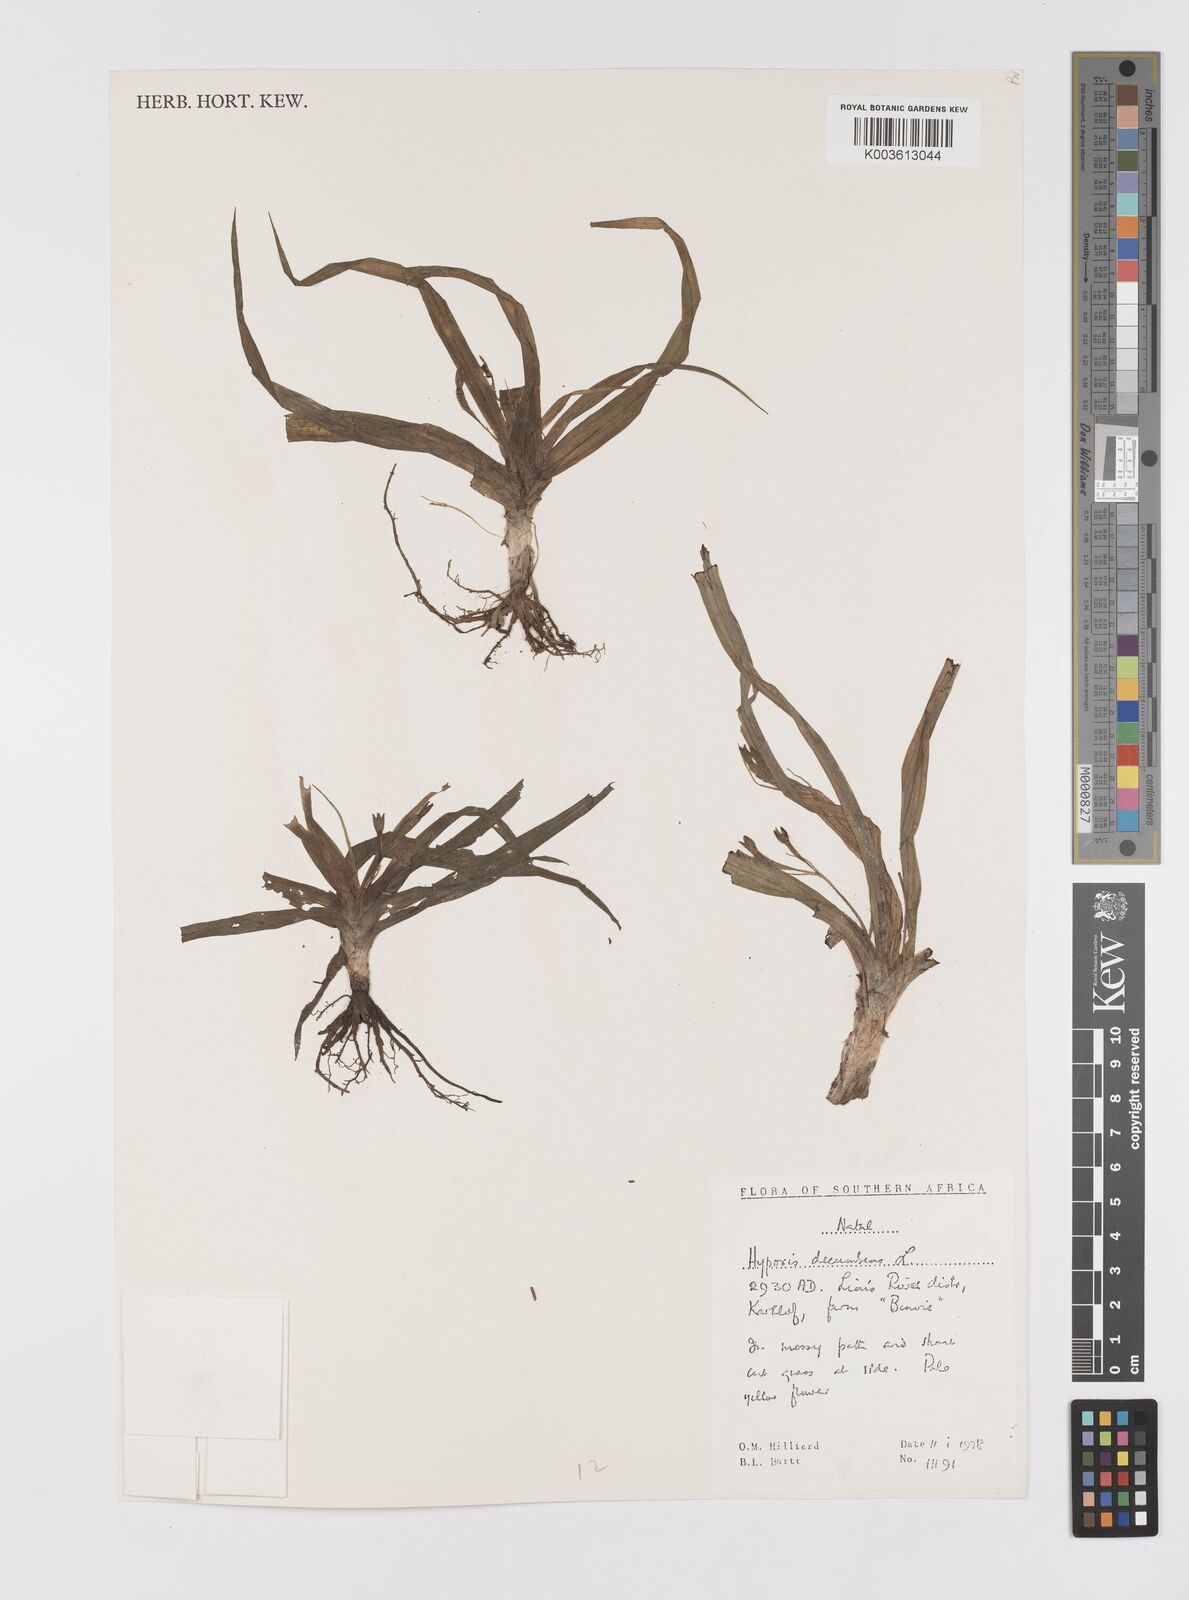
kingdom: Plantae
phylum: Tracheophyta
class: Liliopsida
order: Asparagales
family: Hypoxidaceae
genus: Hypoxis
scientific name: Hypoxis decumbens
